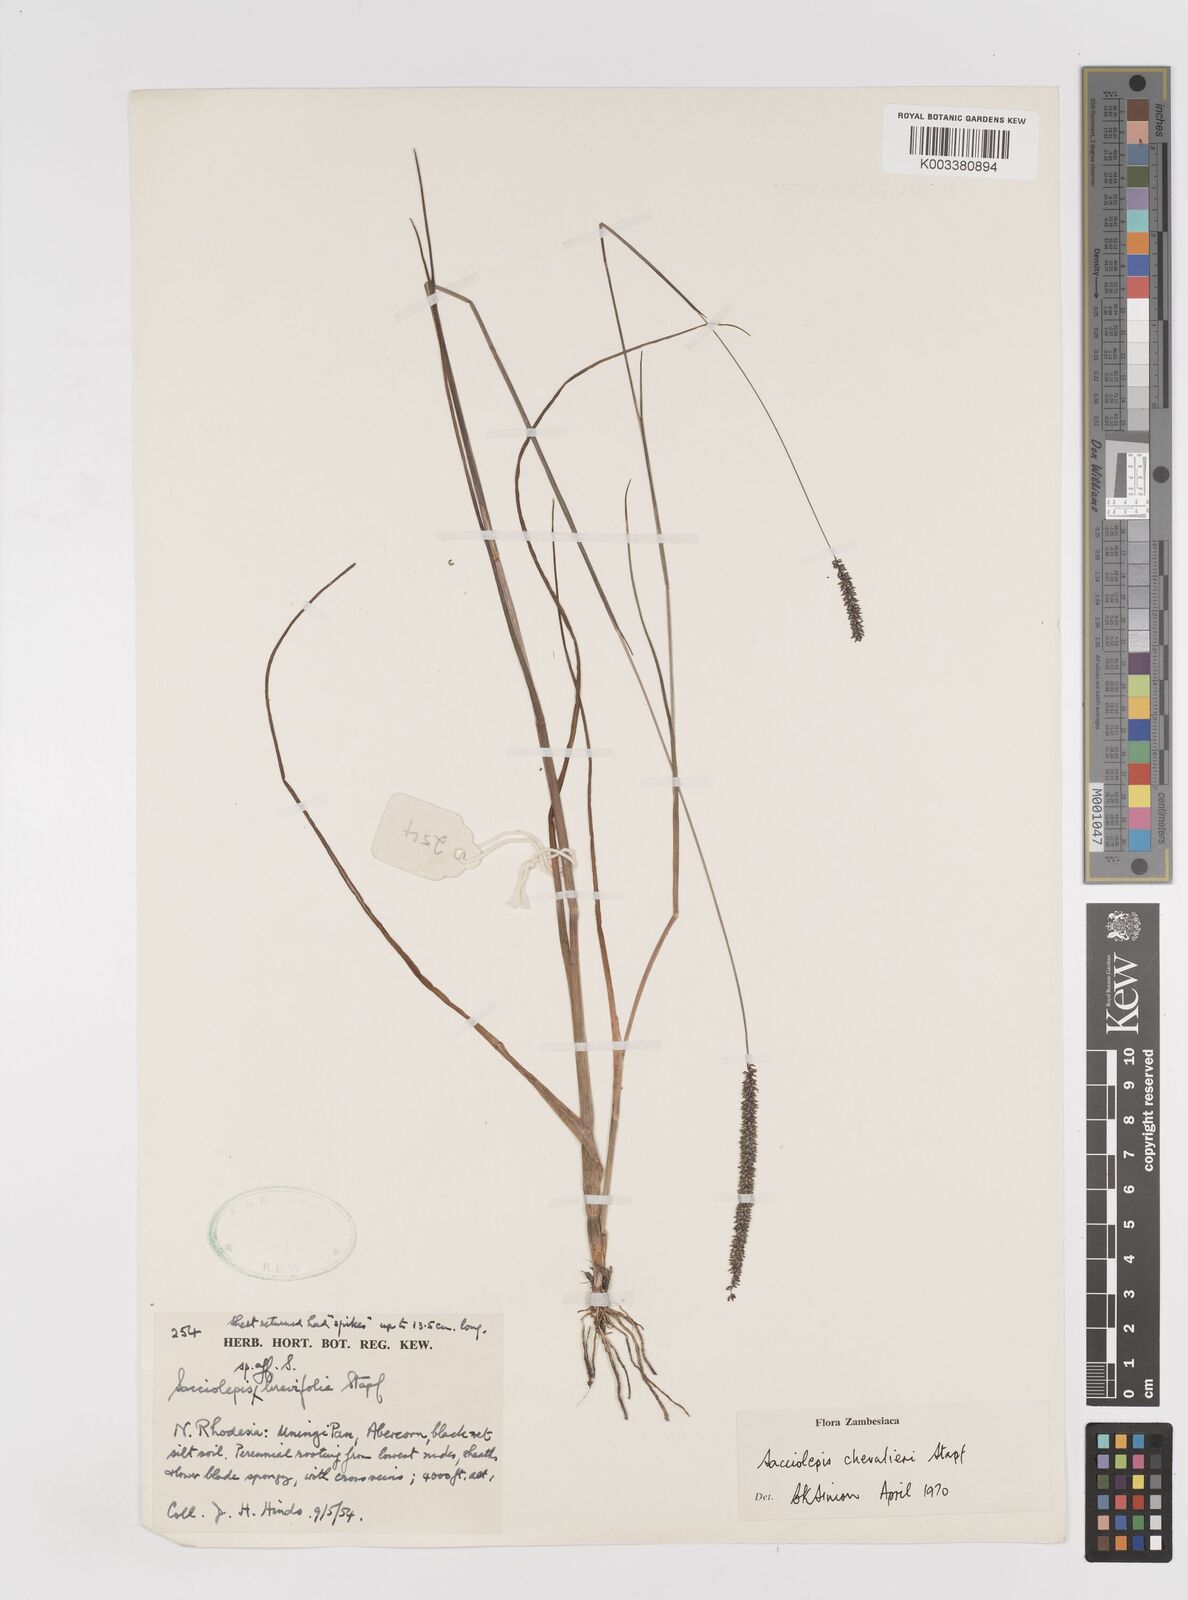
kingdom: Plantae
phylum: Tracheophyta
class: Liliopsida
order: Poales
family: Poaceae
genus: Sacciolepis
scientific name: Sacciolepis chevalieri
